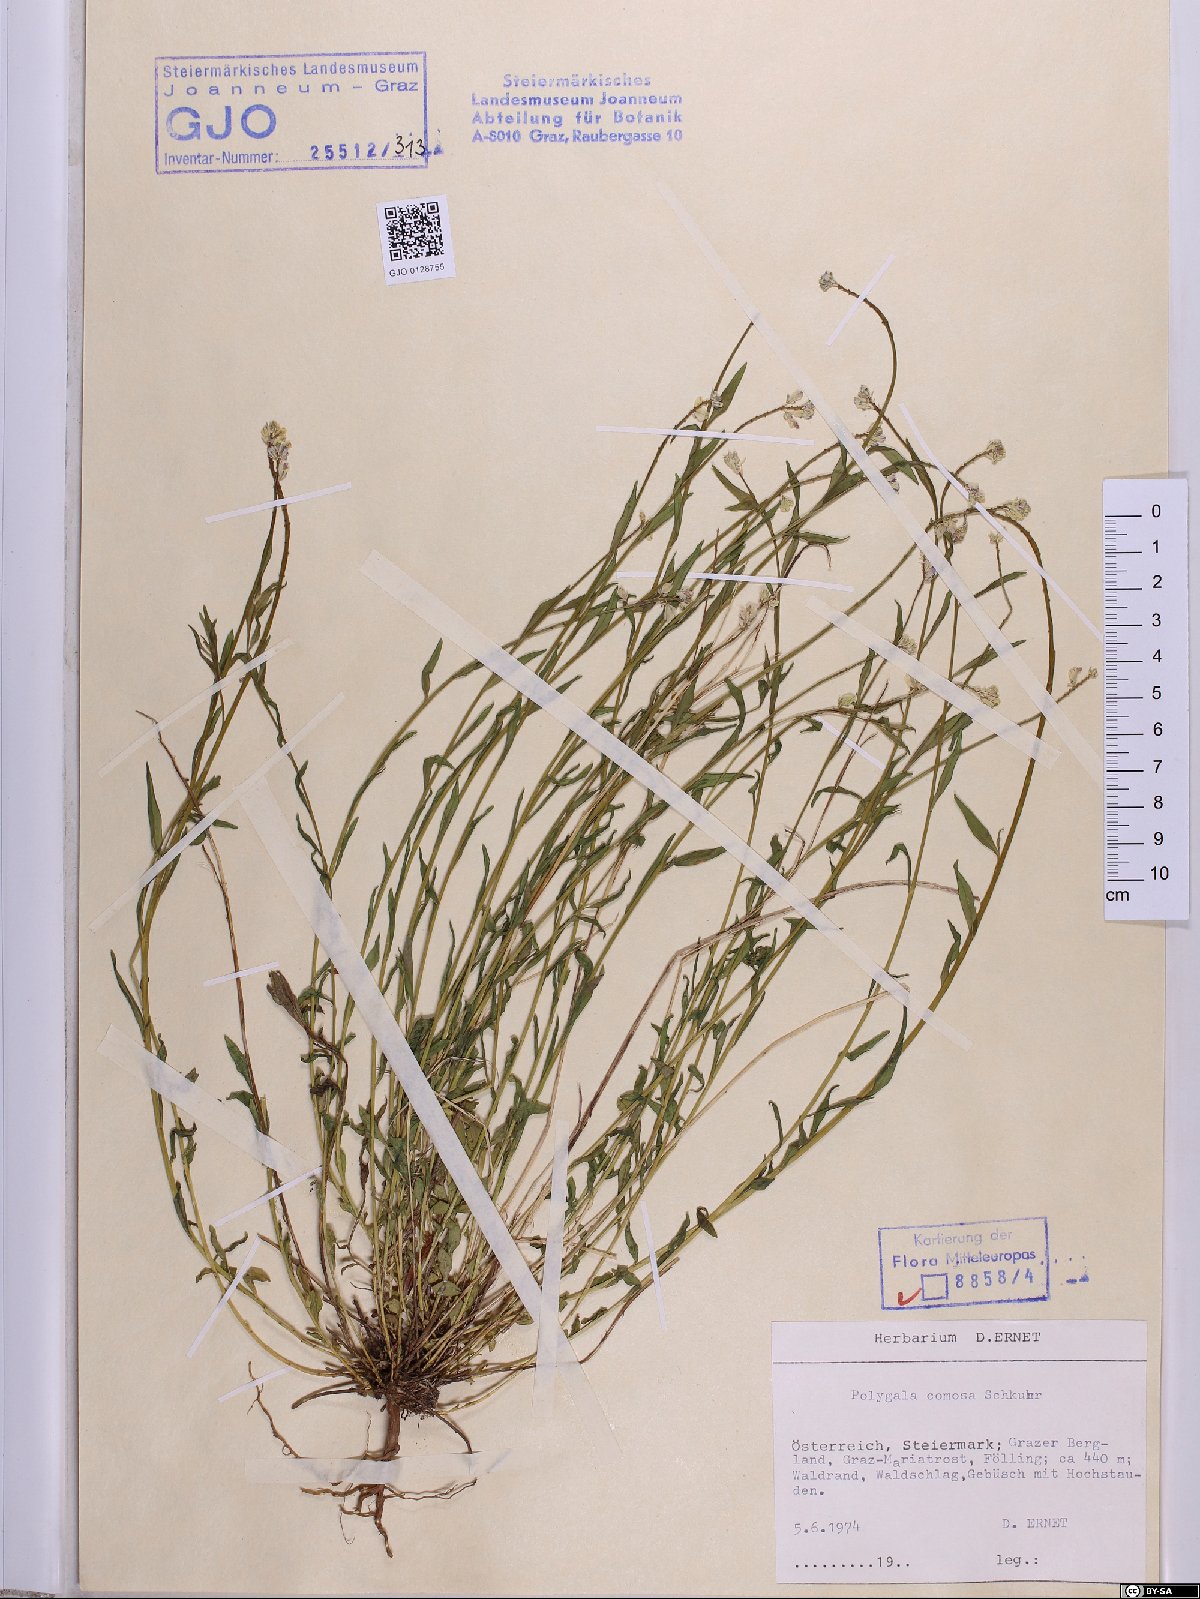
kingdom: Plantae
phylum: Tracheophyta
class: Magnoliopsida
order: Fabales
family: Polygalaceae
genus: Polygala
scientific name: Polygala comosa
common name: Tufted milkwort
